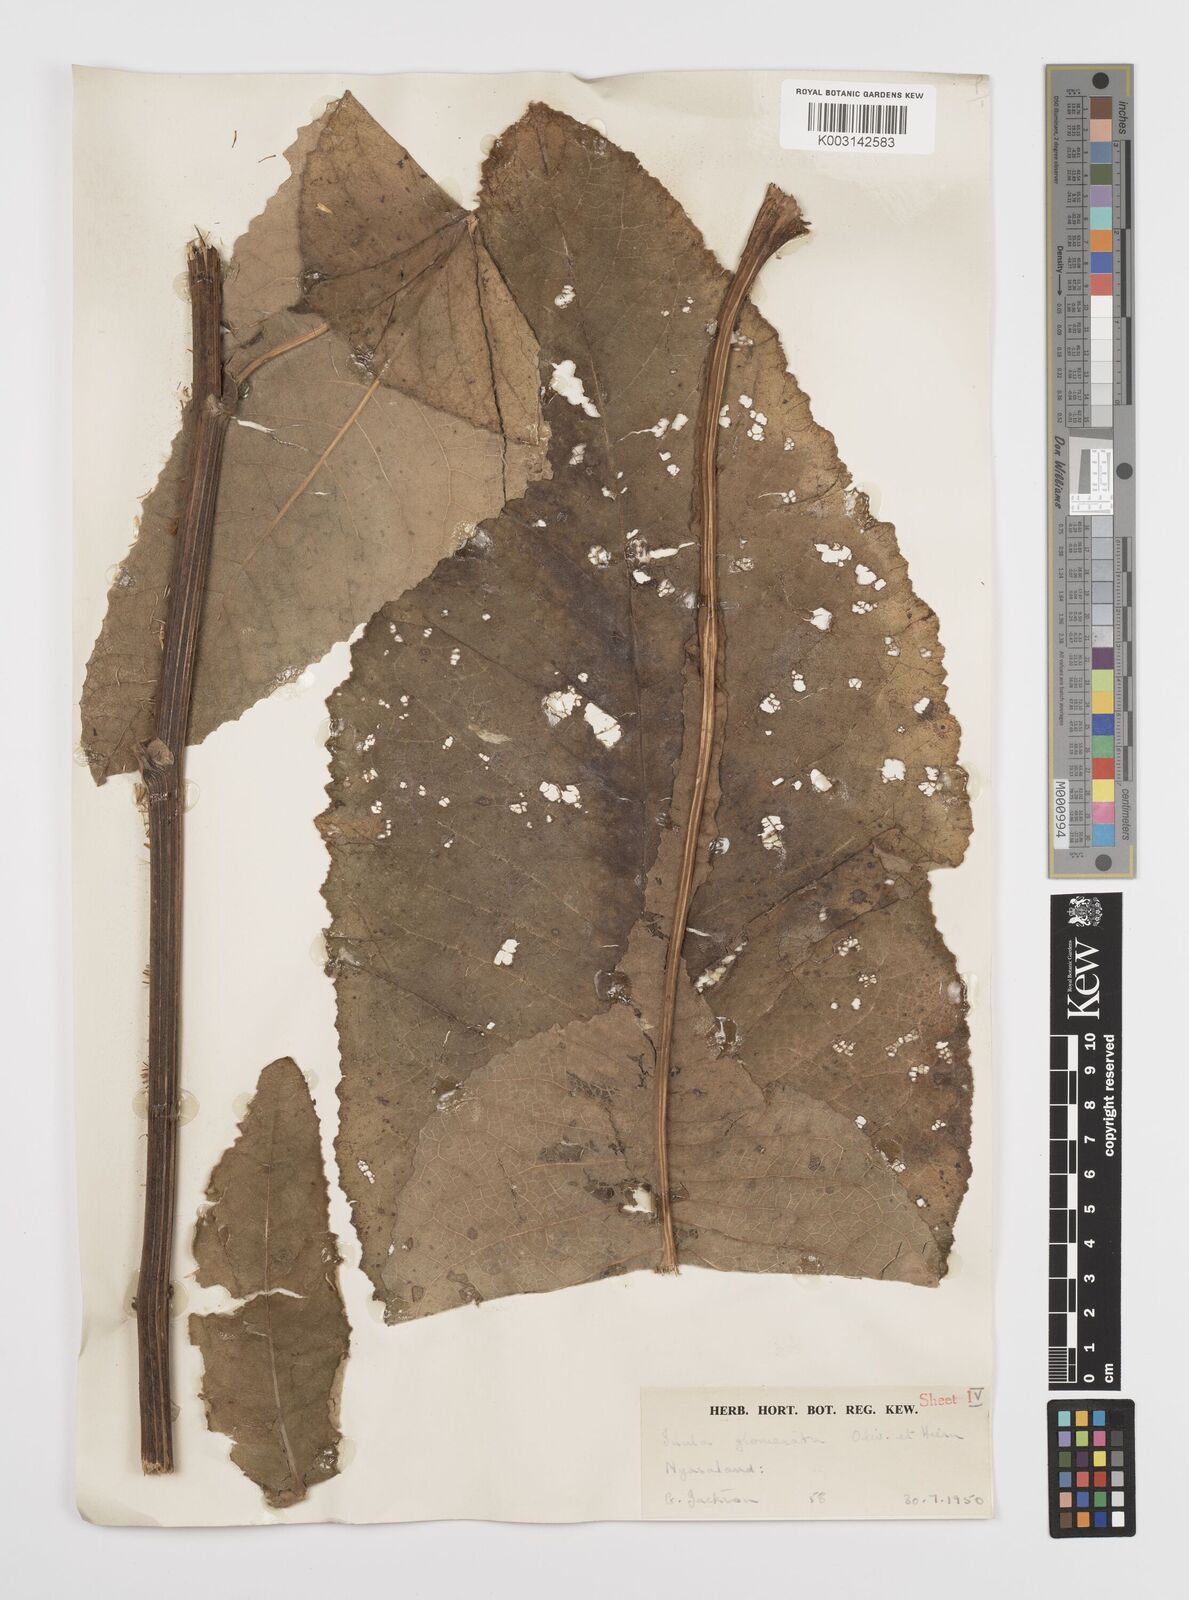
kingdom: Plantae
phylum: Tracheophyta
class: Magnoliopsida
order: Asterales
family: Asteraceae
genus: Inula
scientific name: Inula glomerata
